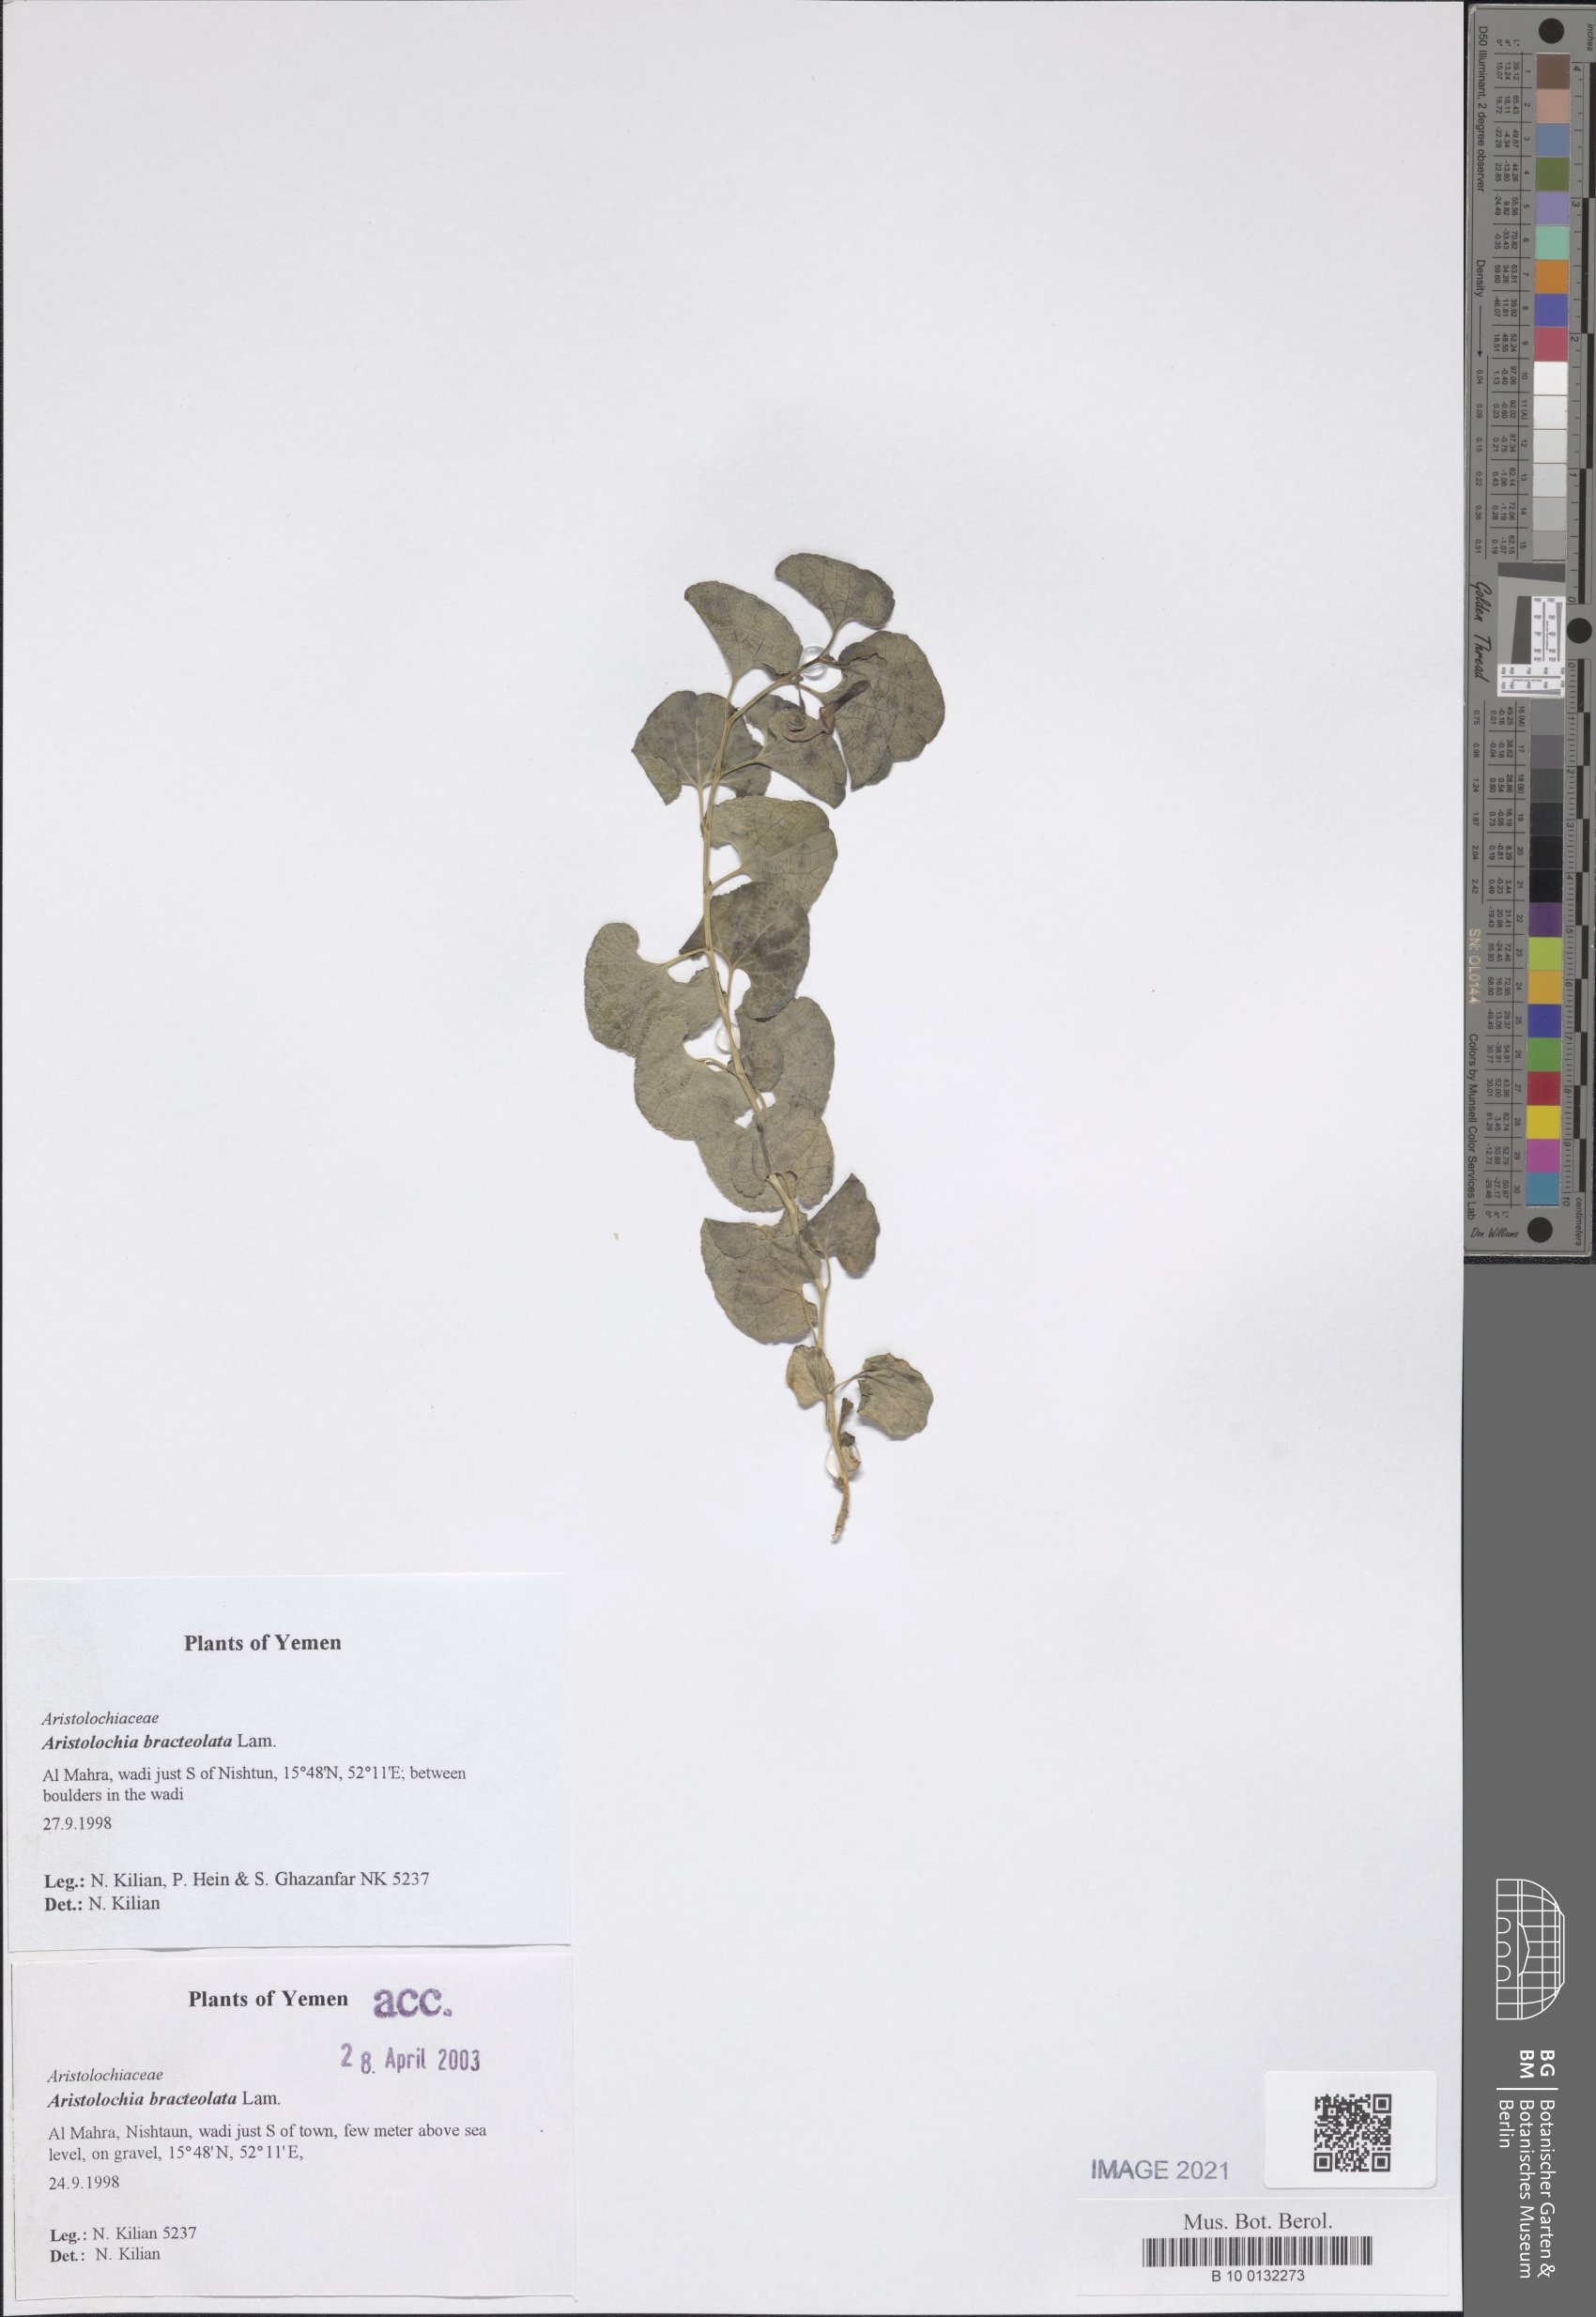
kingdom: Plantae
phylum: Tracheophyta
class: Magnoliopsida
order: Piperales
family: Aristolochiaceae
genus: Aristolochia
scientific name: Aristolochia bracteolata
